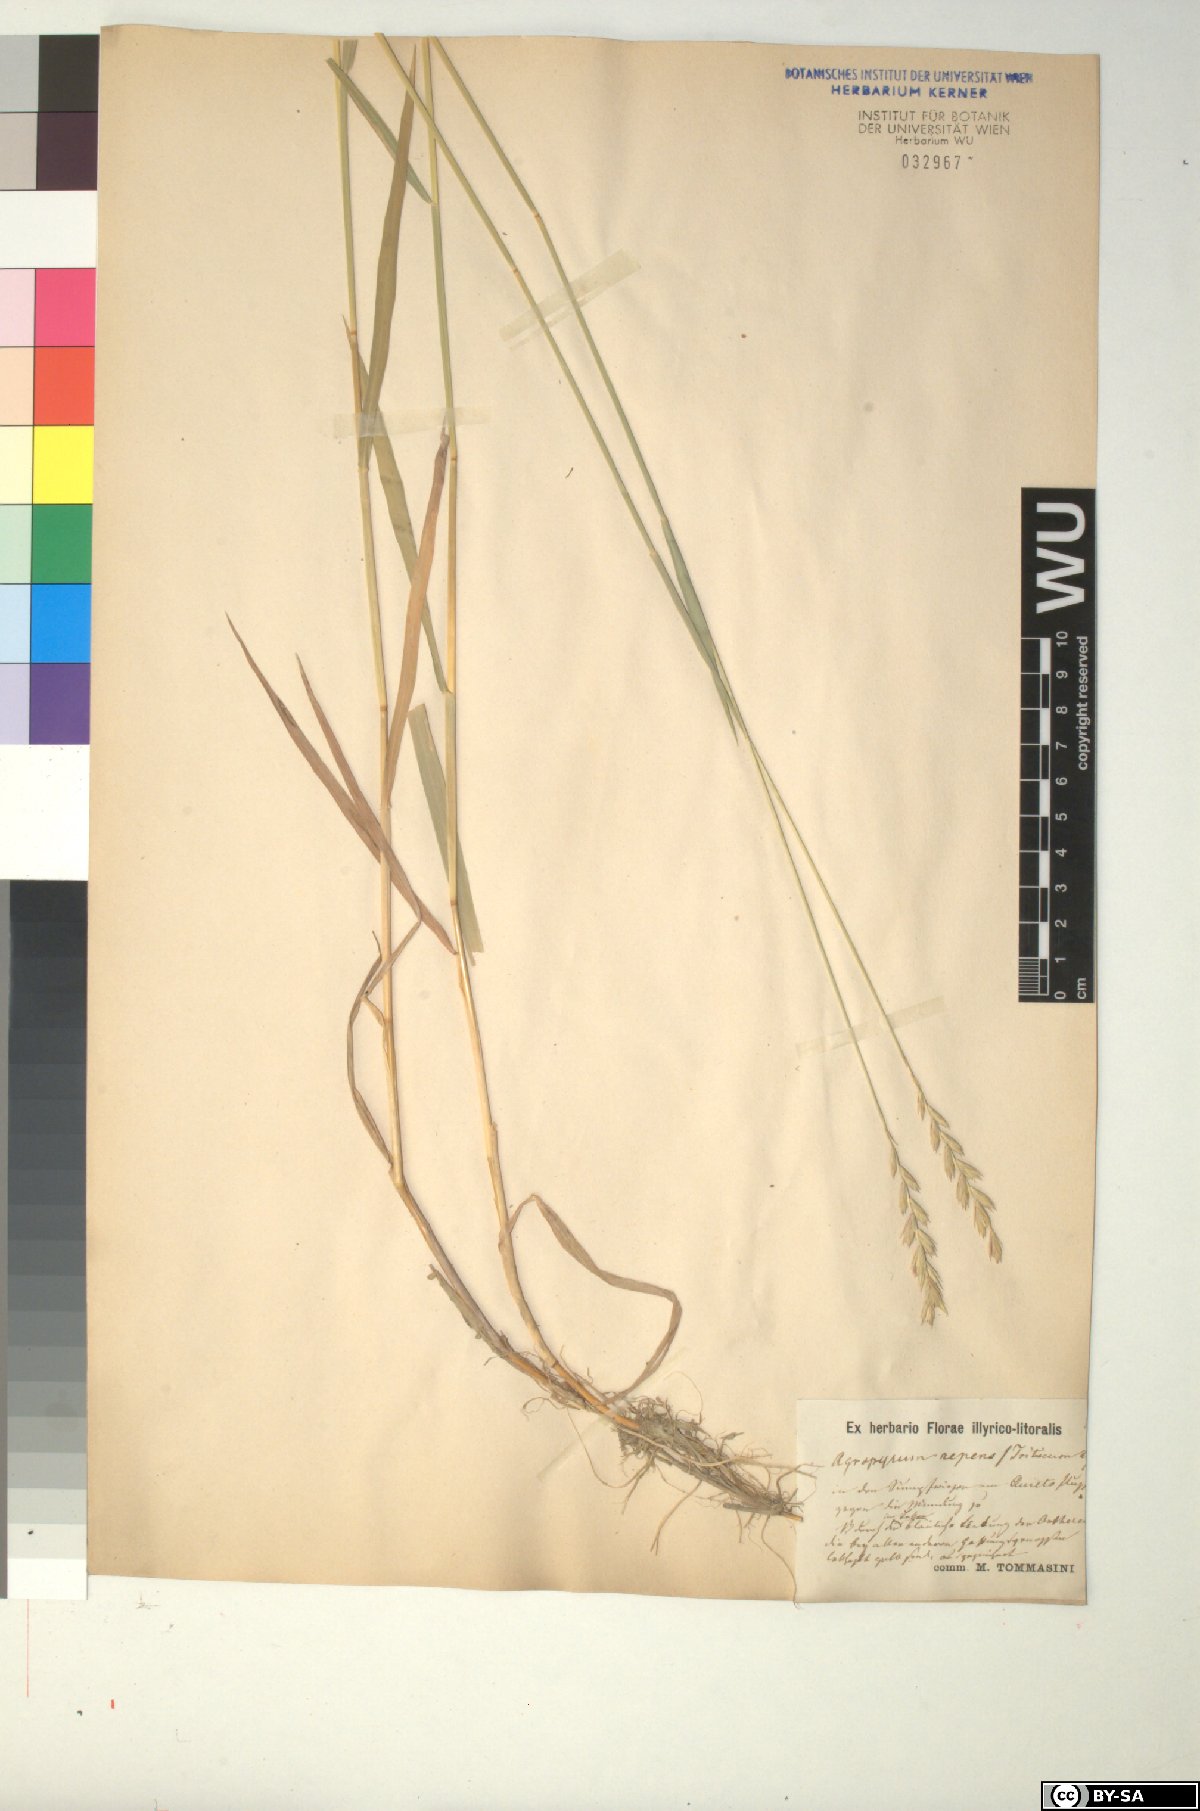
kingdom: Plantae
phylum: Tracheophyta
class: Liliopsida
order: Poales
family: Poaceae
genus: Elymus
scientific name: Elymus repens
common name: Quackgrass
